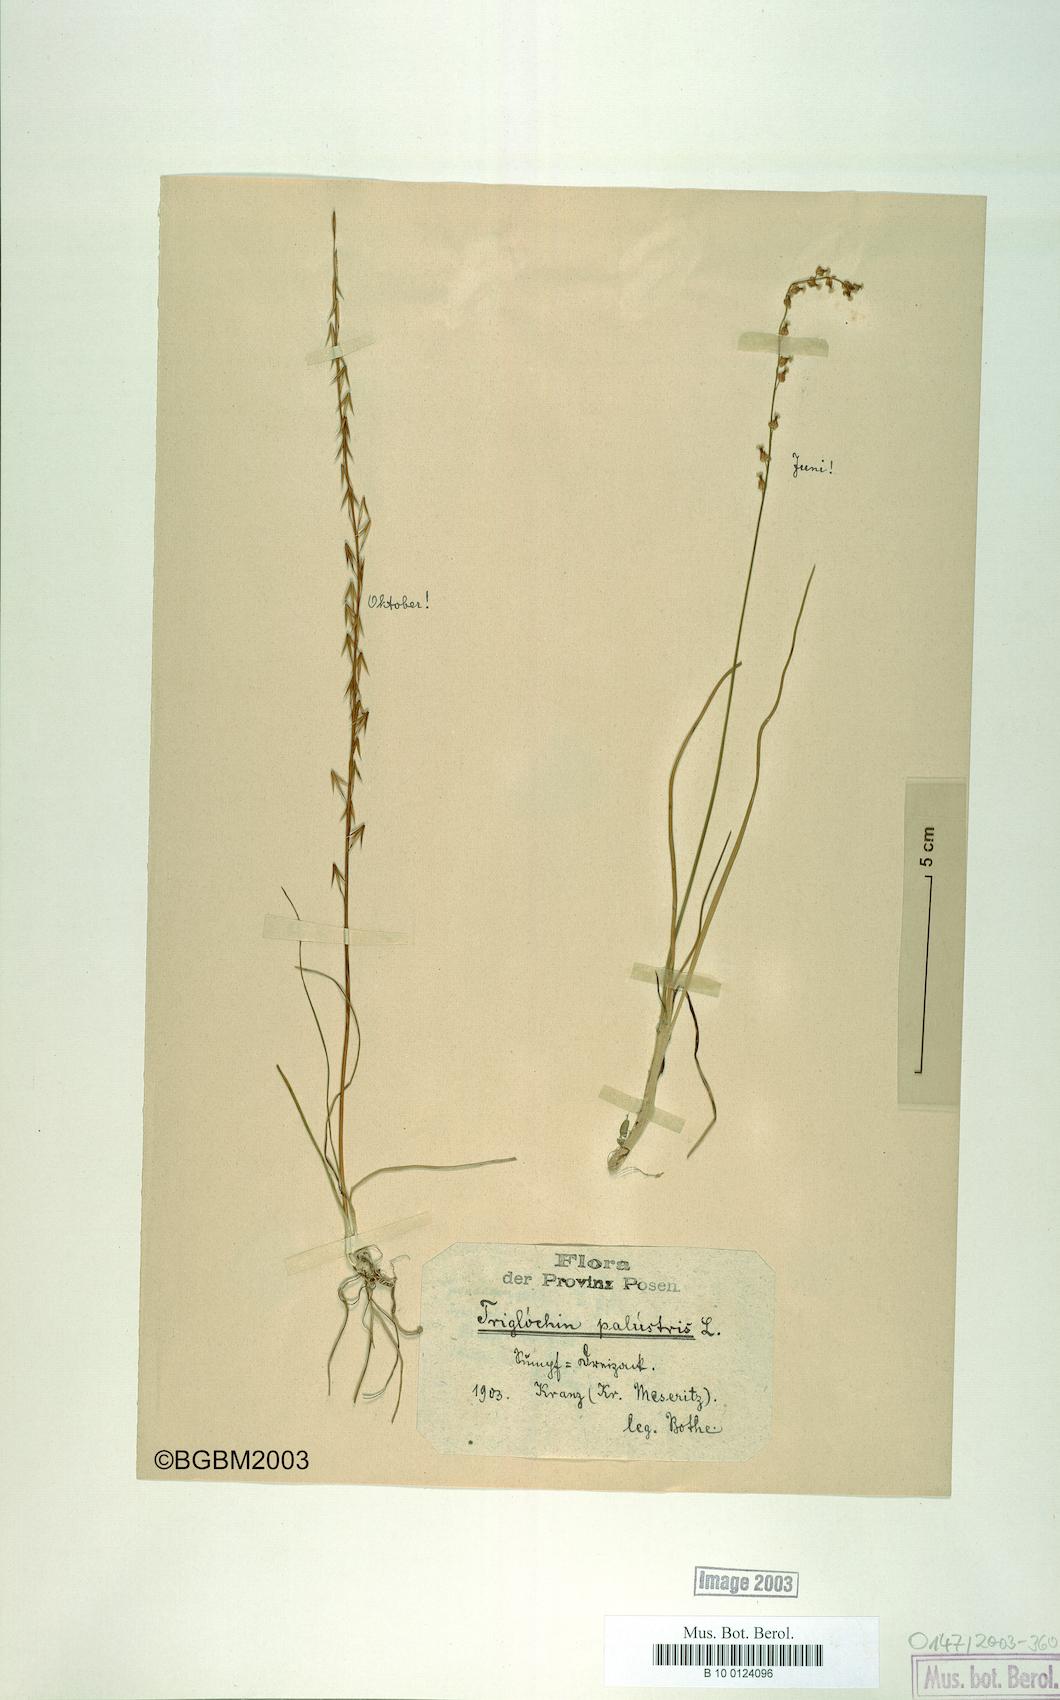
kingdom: Plantae
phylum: Tracheophyta
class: Liliopsida
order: Alismatales
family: Juncaginaceae
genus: Triglochin
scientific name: Triglochin palustris
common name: Marsh arrowgrass
